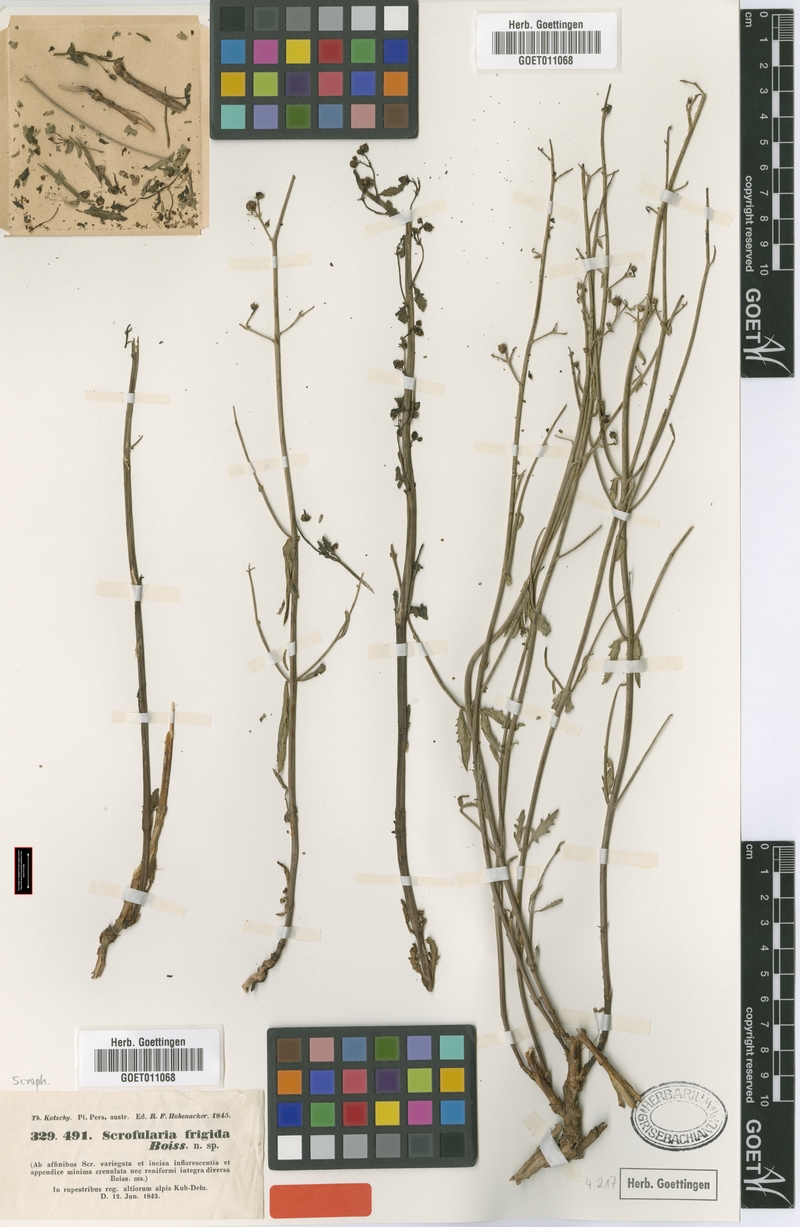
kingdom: Plantae
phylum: Tracheophyta
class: Magnoliopsida
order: Lamiales
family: Scrophulariaceae
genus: Scrophularia
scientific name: Scrophularia frigida
